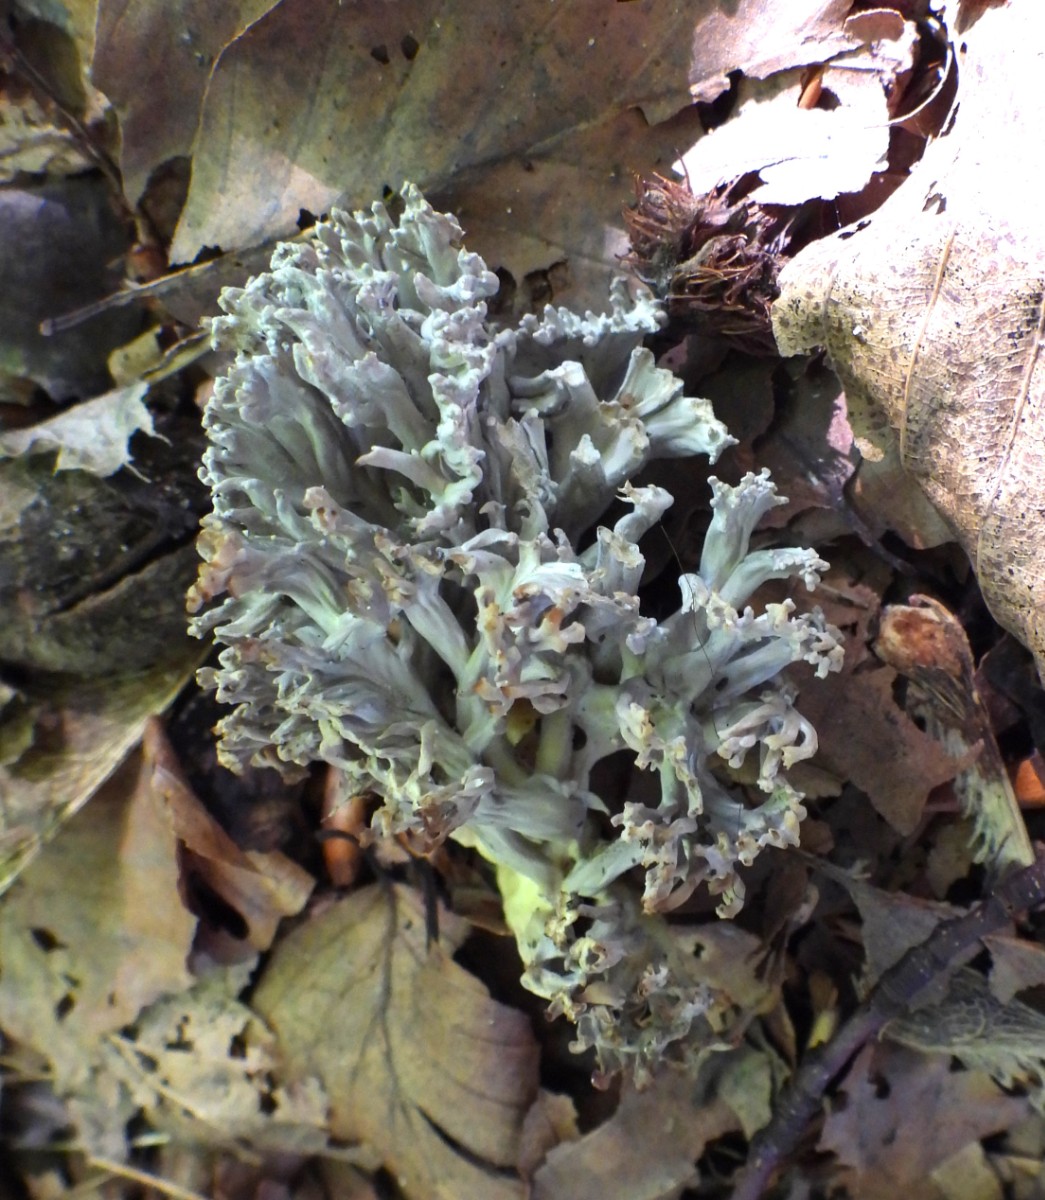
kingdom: Fungi
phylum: Basidiomycota
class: Agaricomycetes
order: Cantharellales
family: Hydnaceae
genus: Clavulina
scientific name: Clavulina
